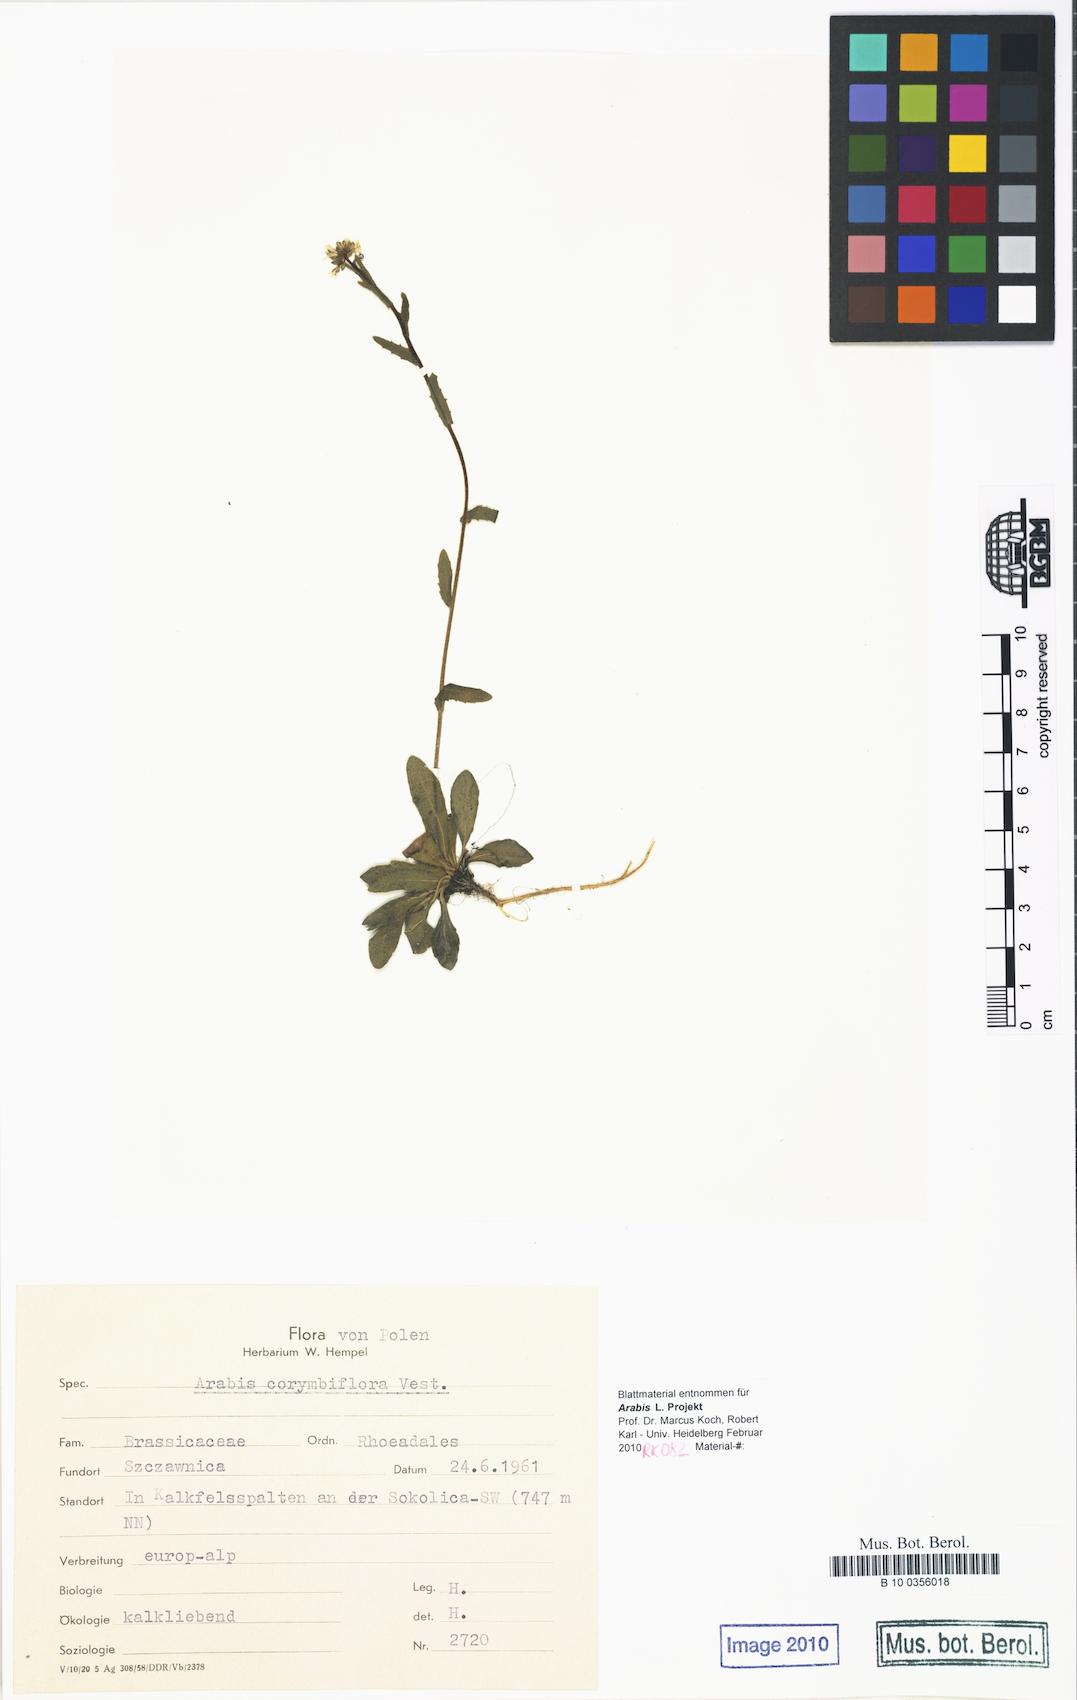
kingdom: Plantae
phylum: Tracheophyta
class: Magnoliopsida
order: Brassicales
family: Brassicaceae
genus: Arabis
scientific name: Arabis hirsuta
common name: Hairy rock-cress
